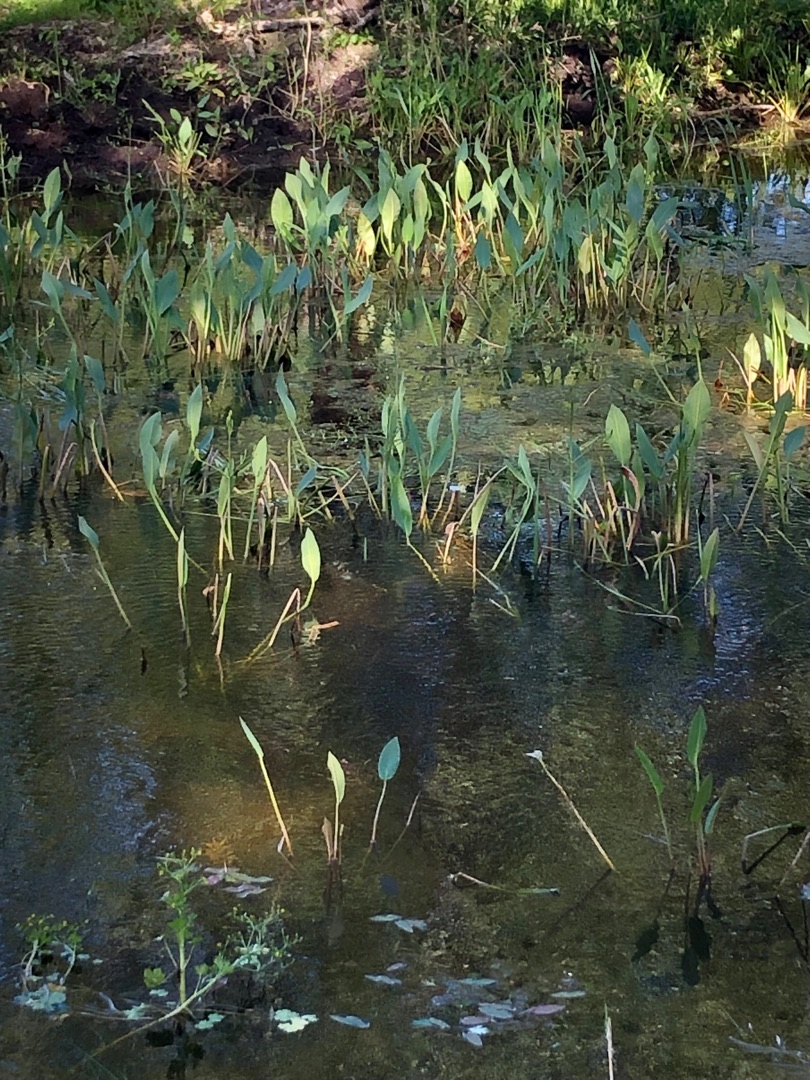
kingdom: Plantae
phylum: Tracheophyta
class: Liliopsida
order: Alismatales
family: Alismataceae
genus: Alisma
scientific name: Alisma plantago-aquatica
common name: Vejbred-skeblad
